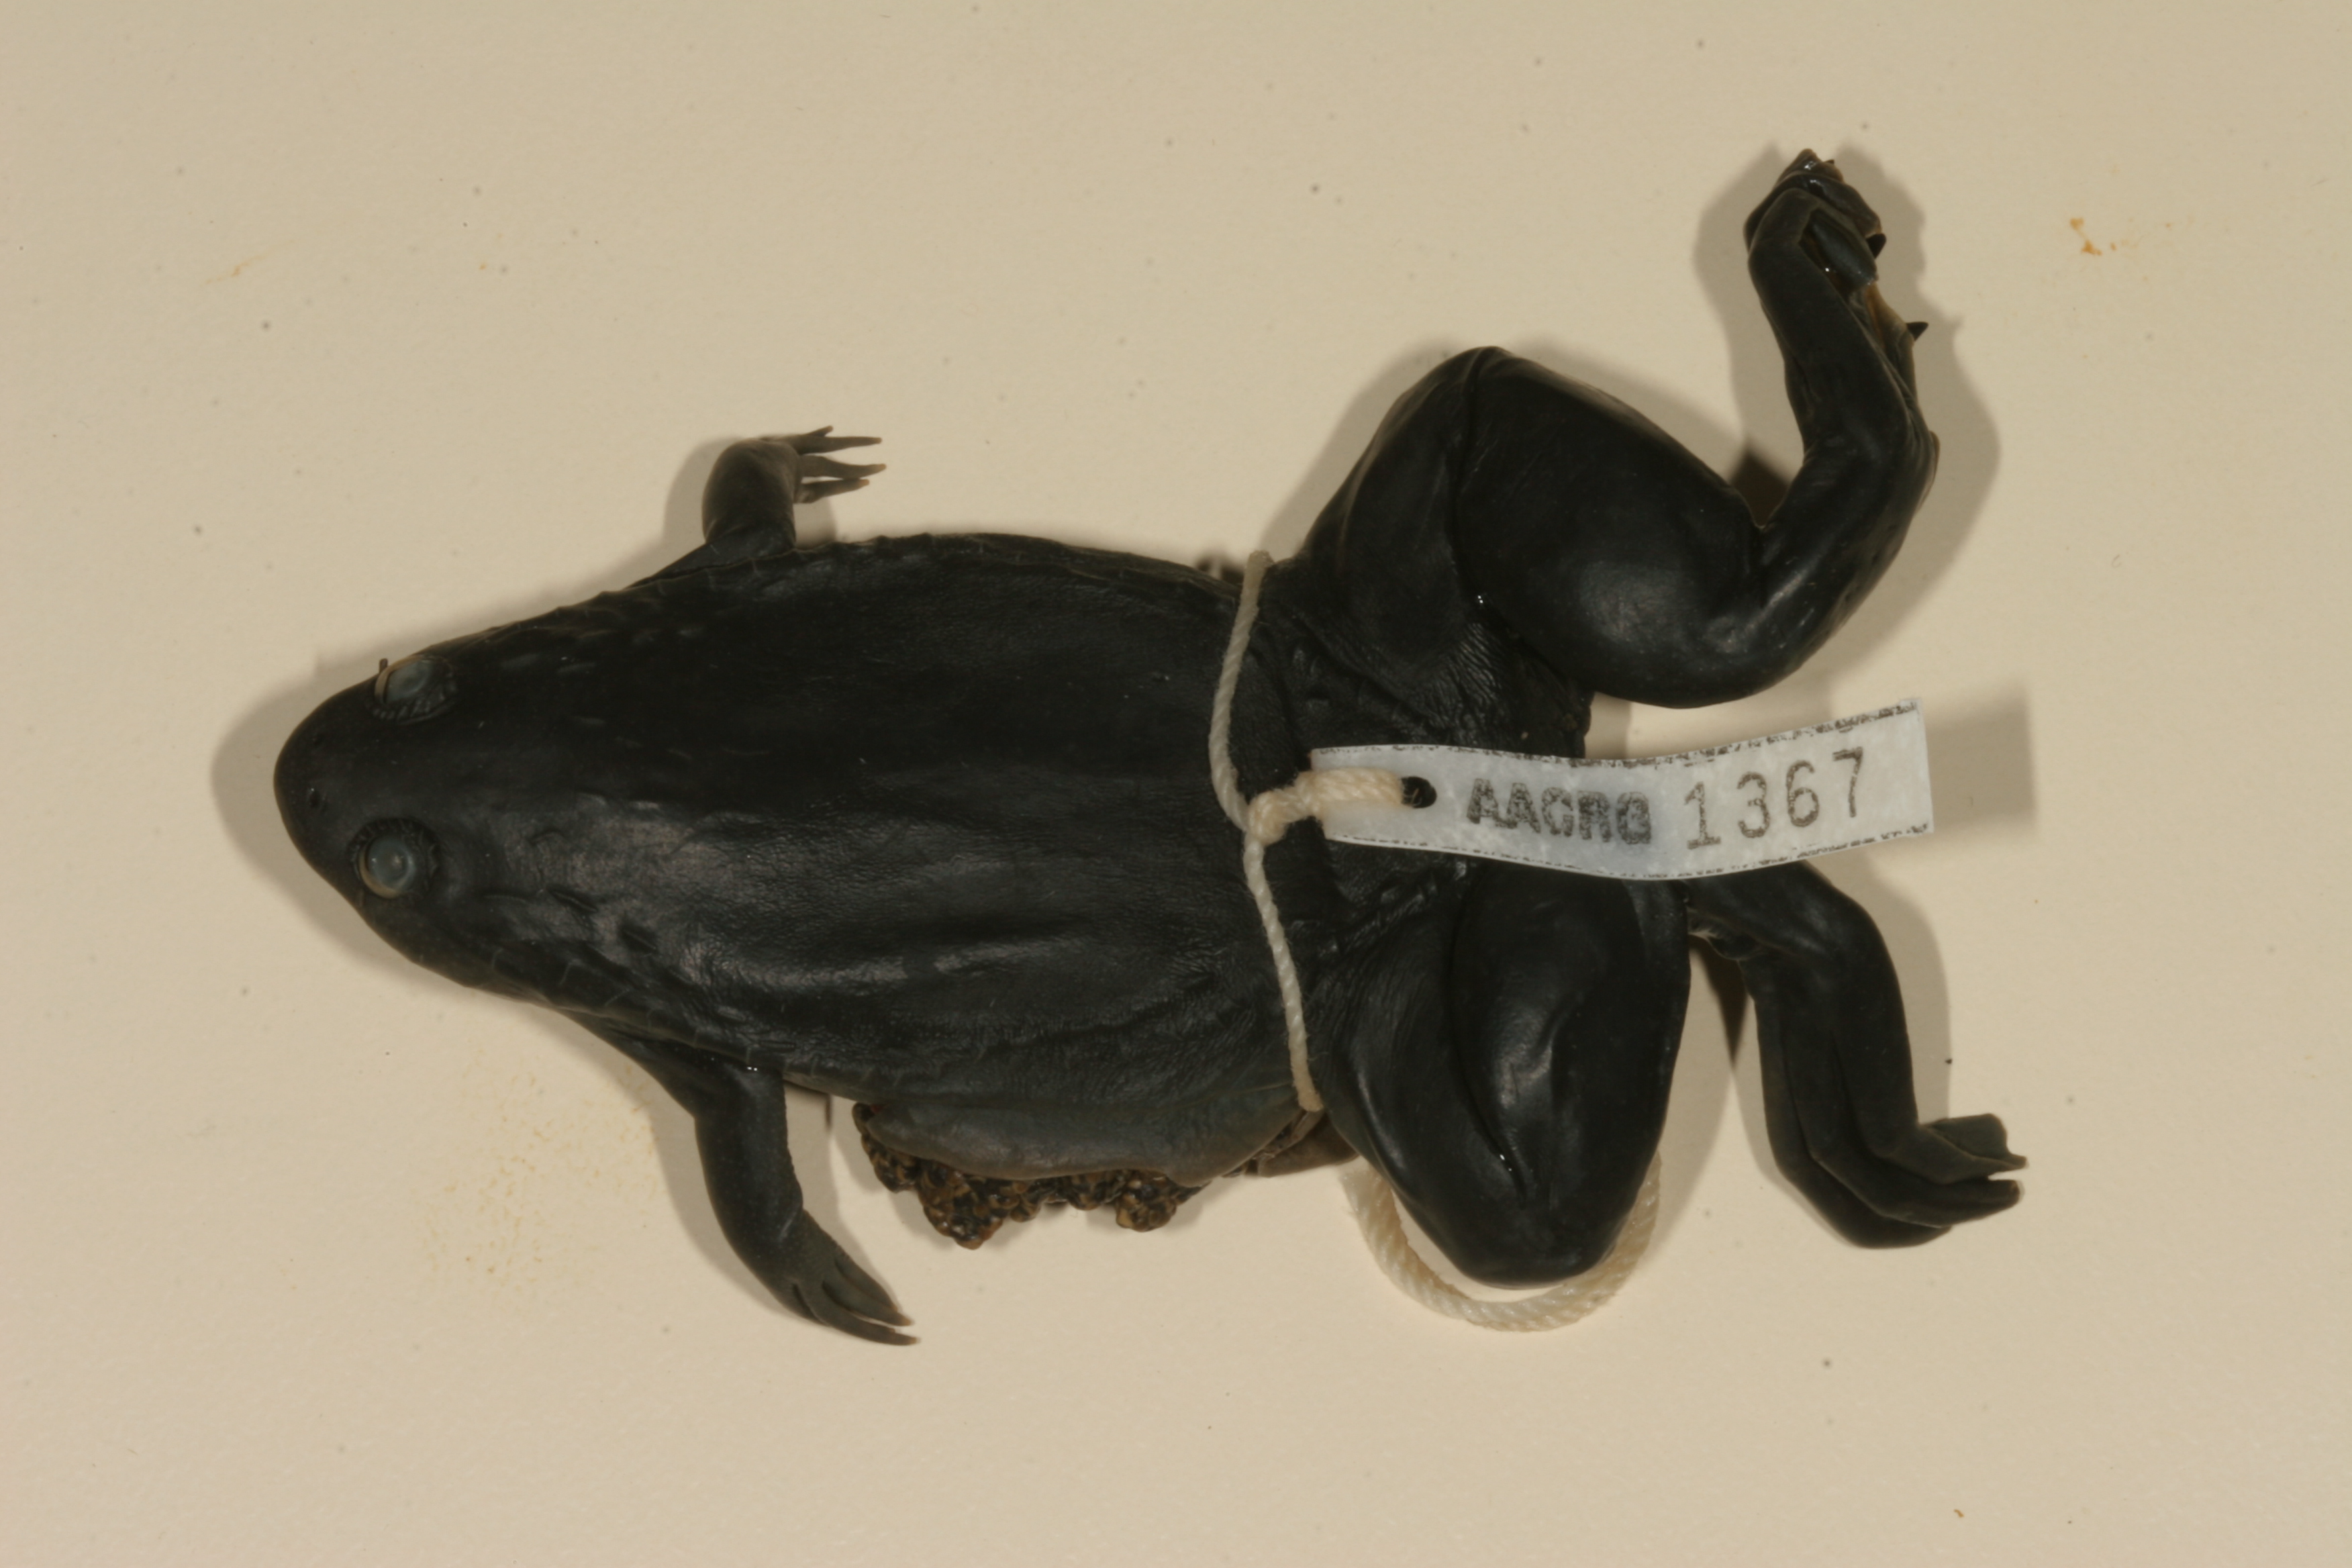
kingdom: Animalia
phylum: Chordata
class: Amphibia
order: Anura
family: Pipidae
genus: Xenopus
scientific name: Xenopus laevis
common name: African clawed frog
